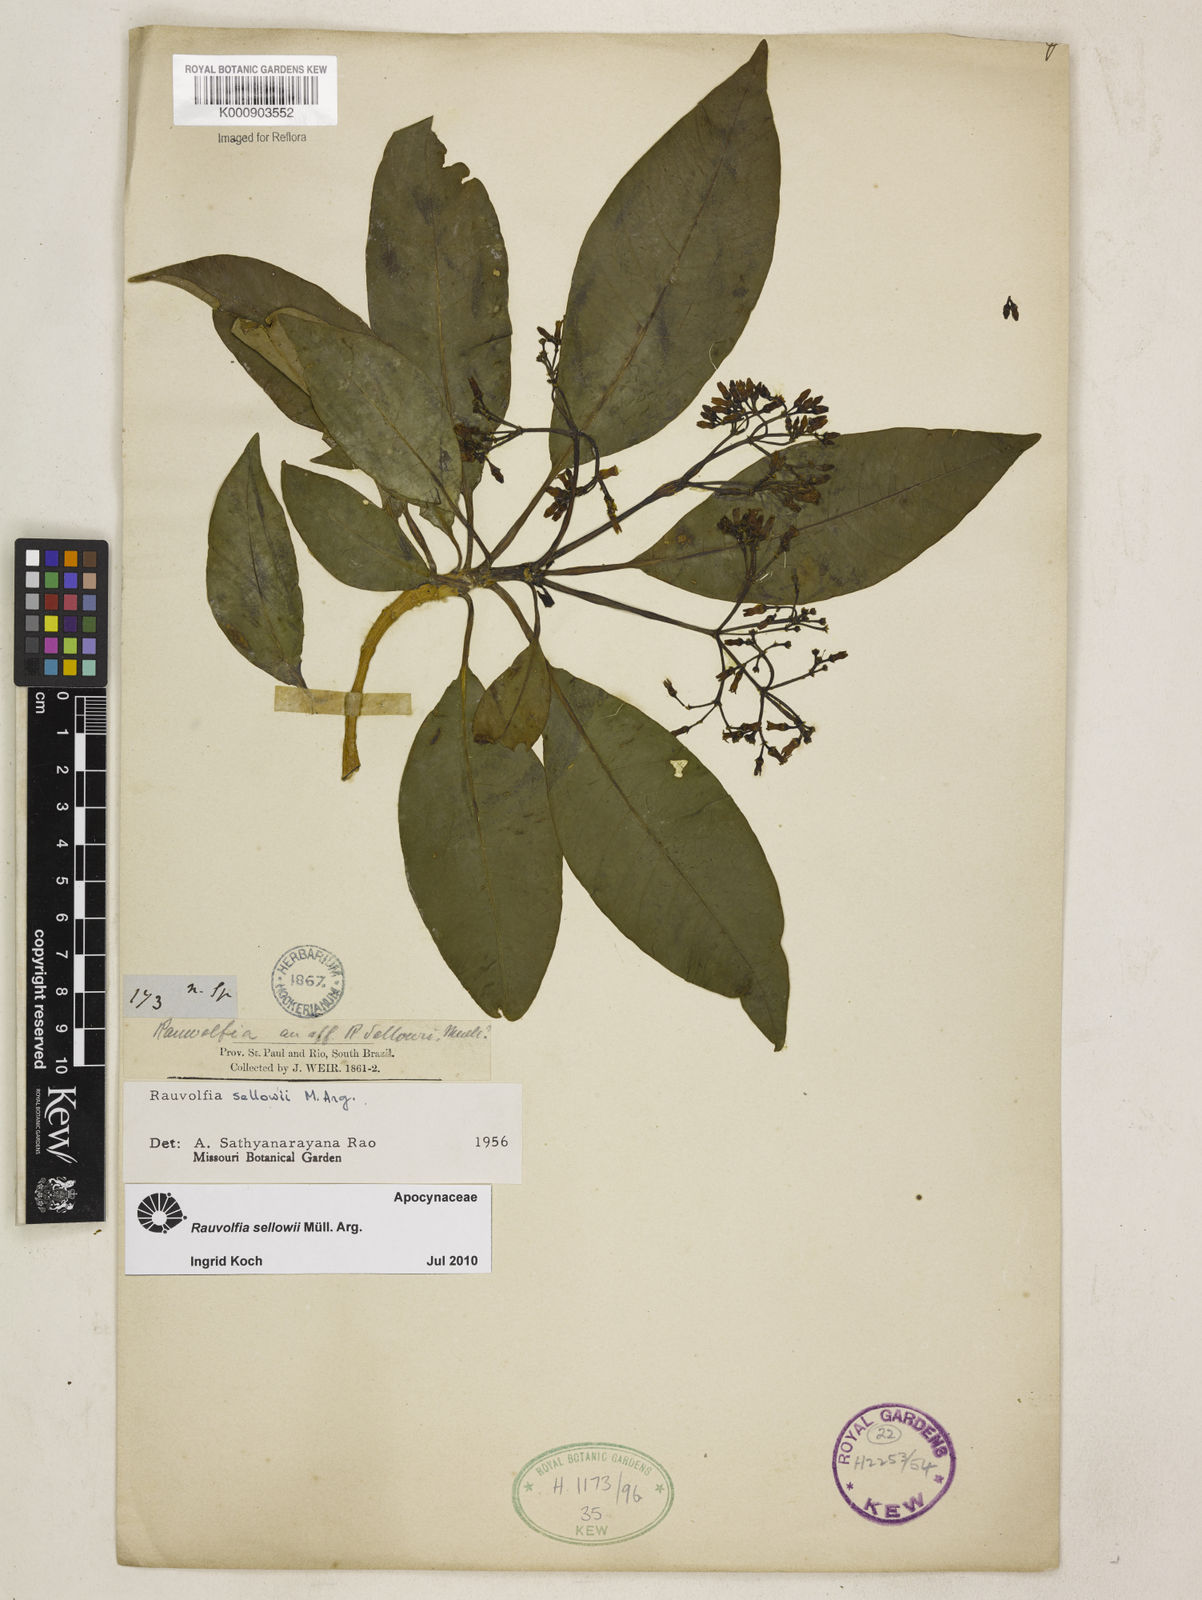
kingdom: Plantae
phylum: Tracheophyta
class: Magnoliopsida
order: Gentianales
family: Apocynaceae
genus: Rauvolfia
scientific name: Rauvolfia
